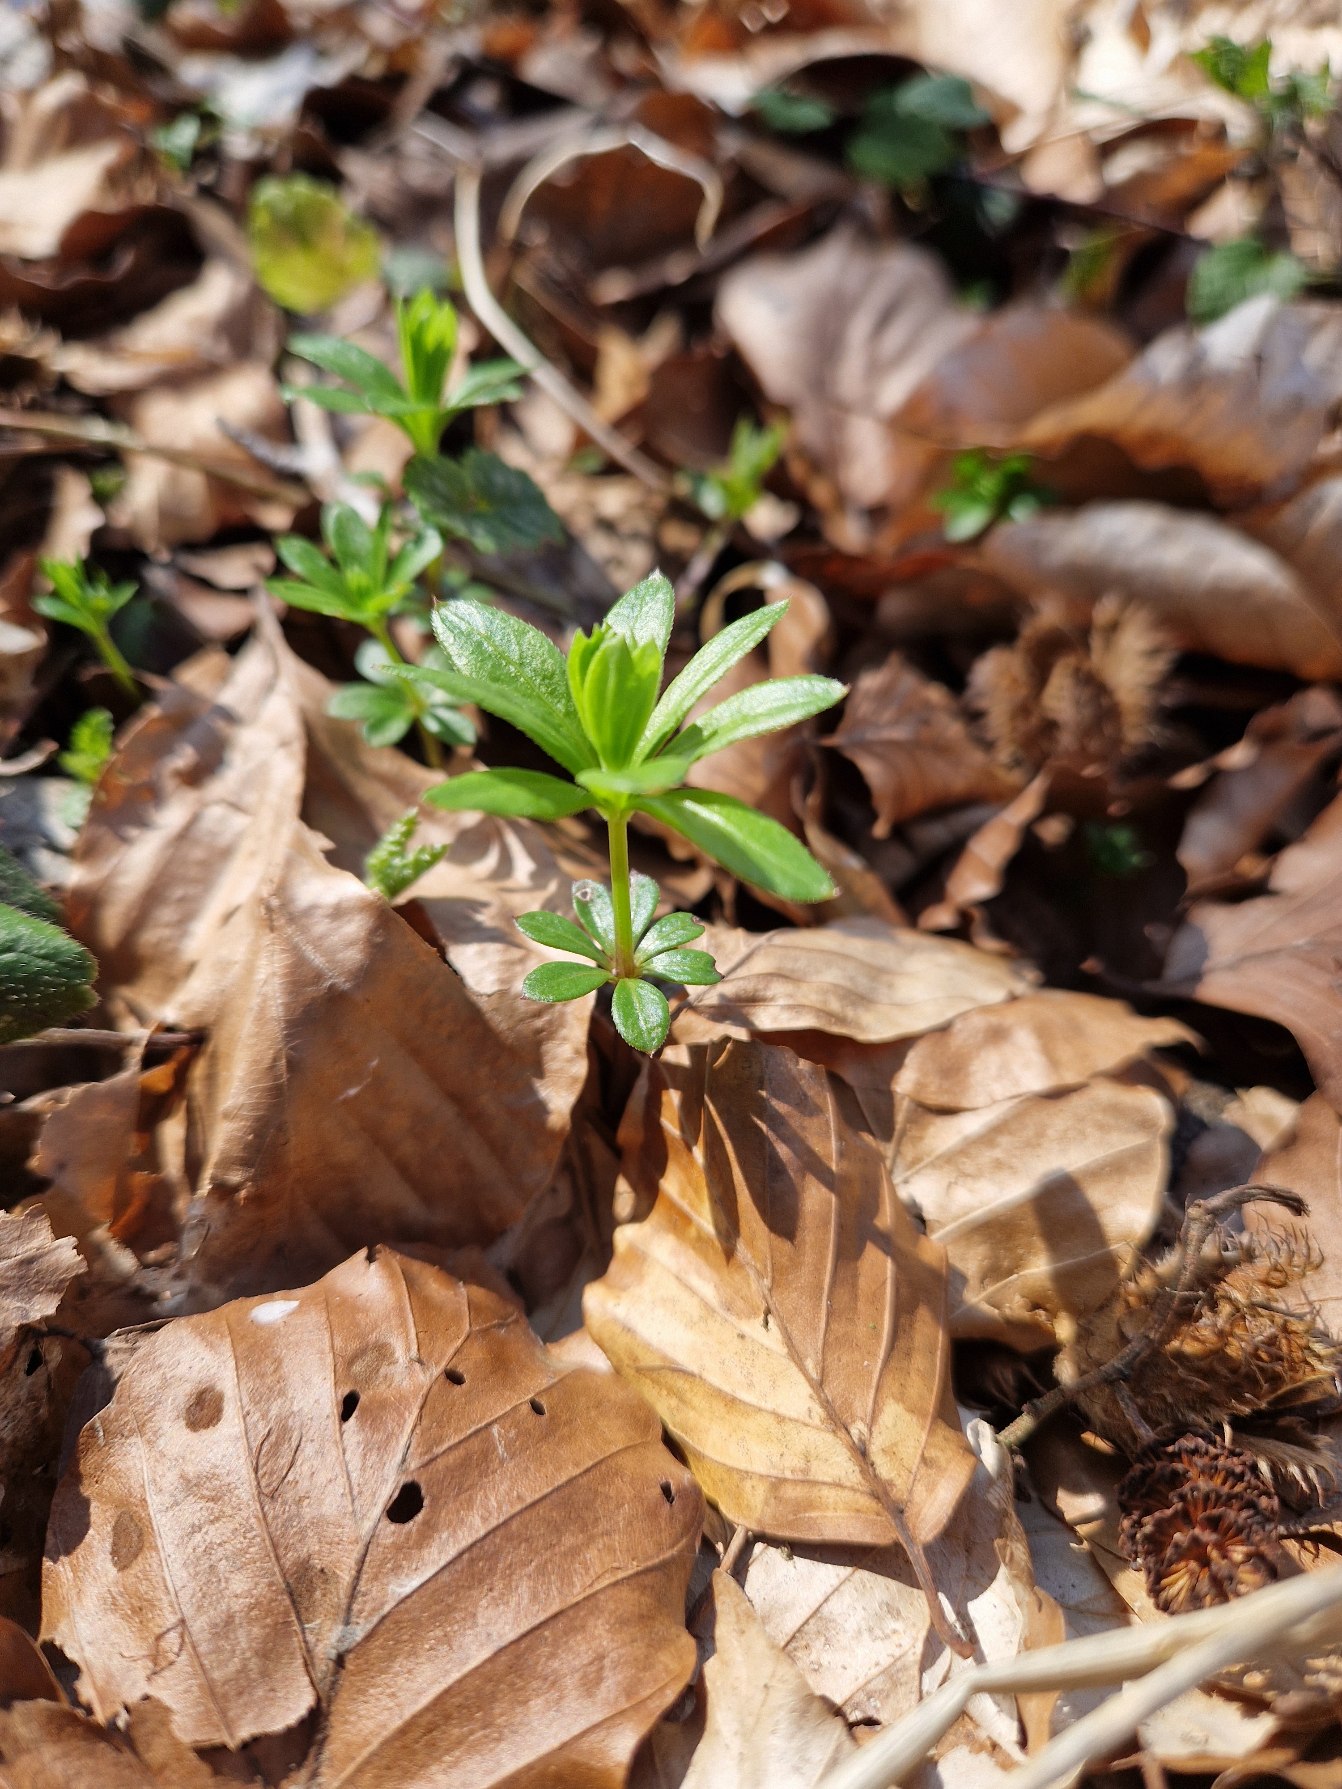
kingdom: Plantae
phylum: Tracheophyta
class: Magnoliopsida
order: Gentianales
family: Rubiaceae
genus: Galium
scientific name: Galium odoratum
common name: Skovmærke
